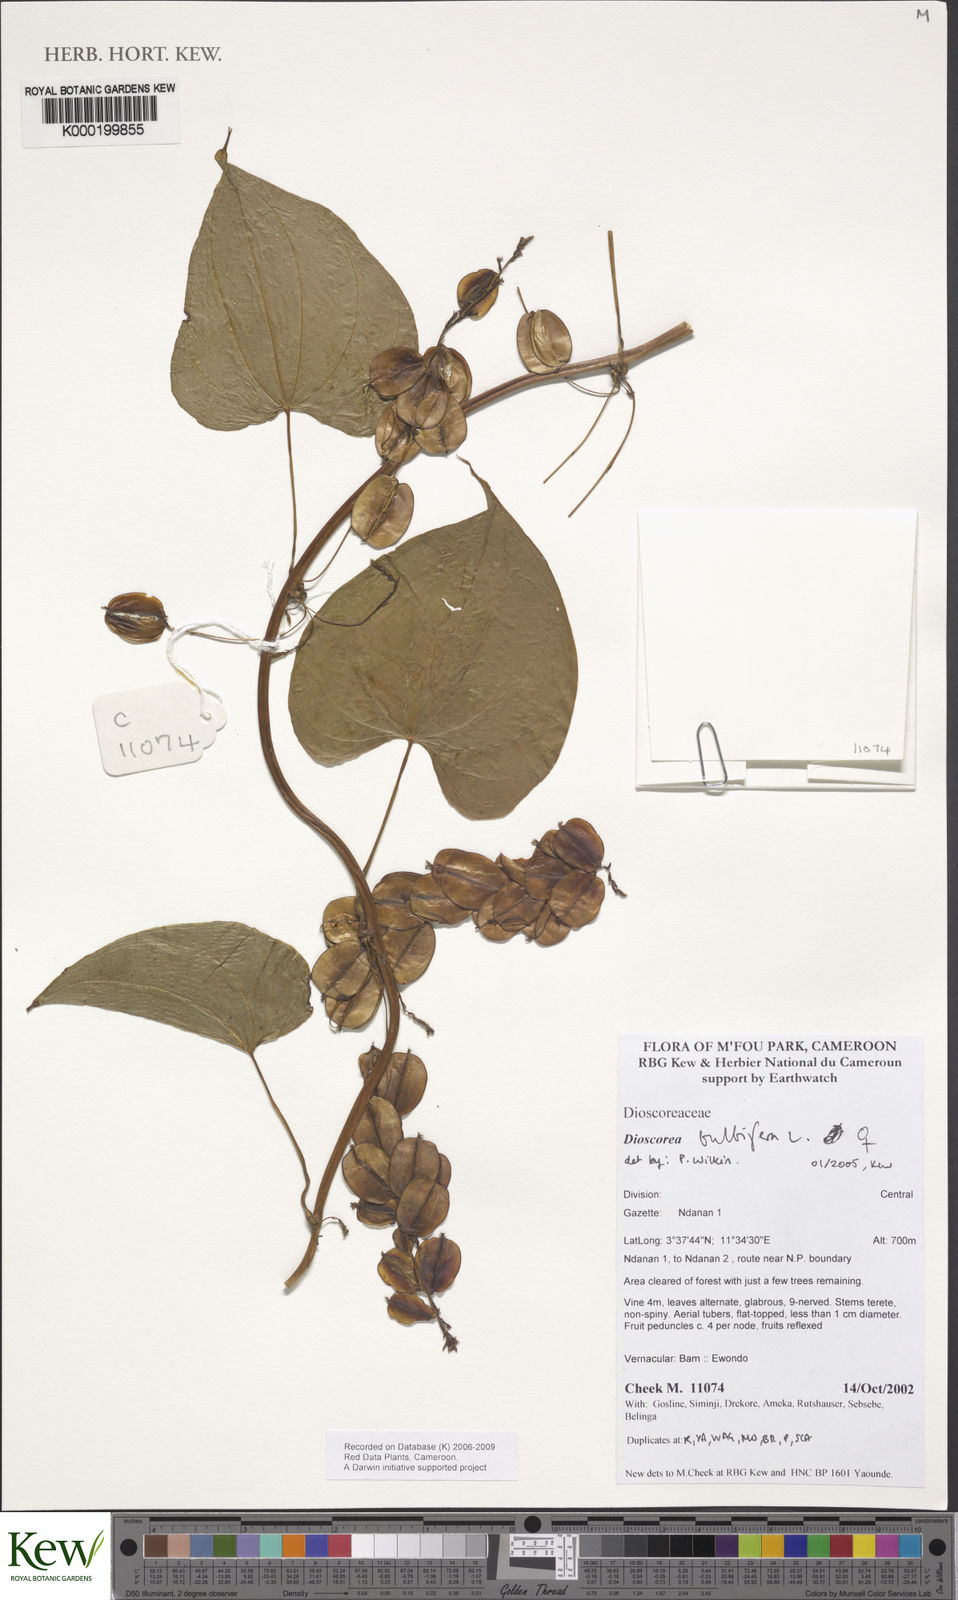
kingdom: Plantae
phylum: Tracheophyta
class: Liliopsida
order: Dioscoreales
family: Dioscoreaceae
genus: Dioscorea
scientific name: Dioscorea bulbifera
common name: Air yam
